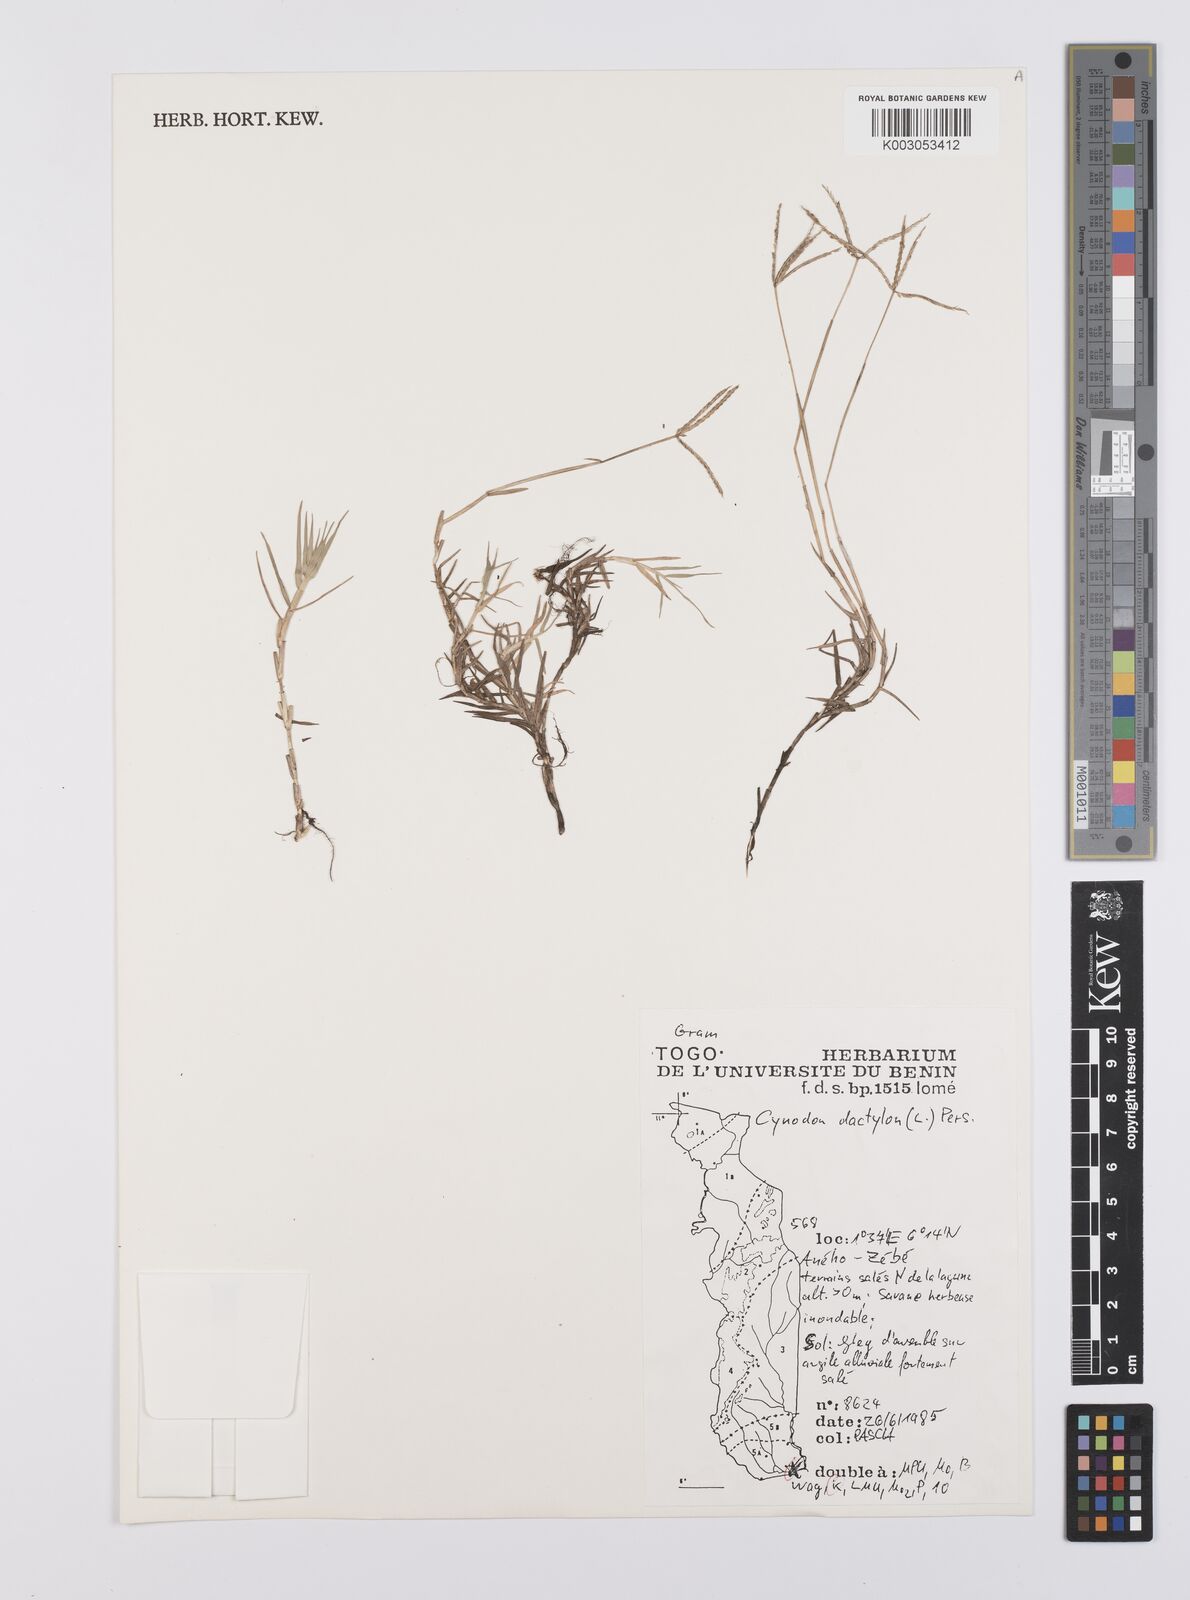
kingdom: Plantae
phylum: Tracheophyta
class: Liliopsida
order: Poales
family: Poaceae
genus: Cynodon
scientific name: Cynodon dactylon
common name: Bermuda grass
